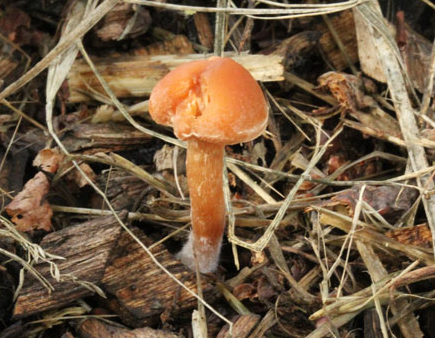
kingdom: Fungi
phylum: Basidiomycota
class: Agaricomycetes
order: Agaricales
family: Tubariaceae
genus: Tubaria
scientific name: Tubaria furfuracea
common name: kliddet fnughat
